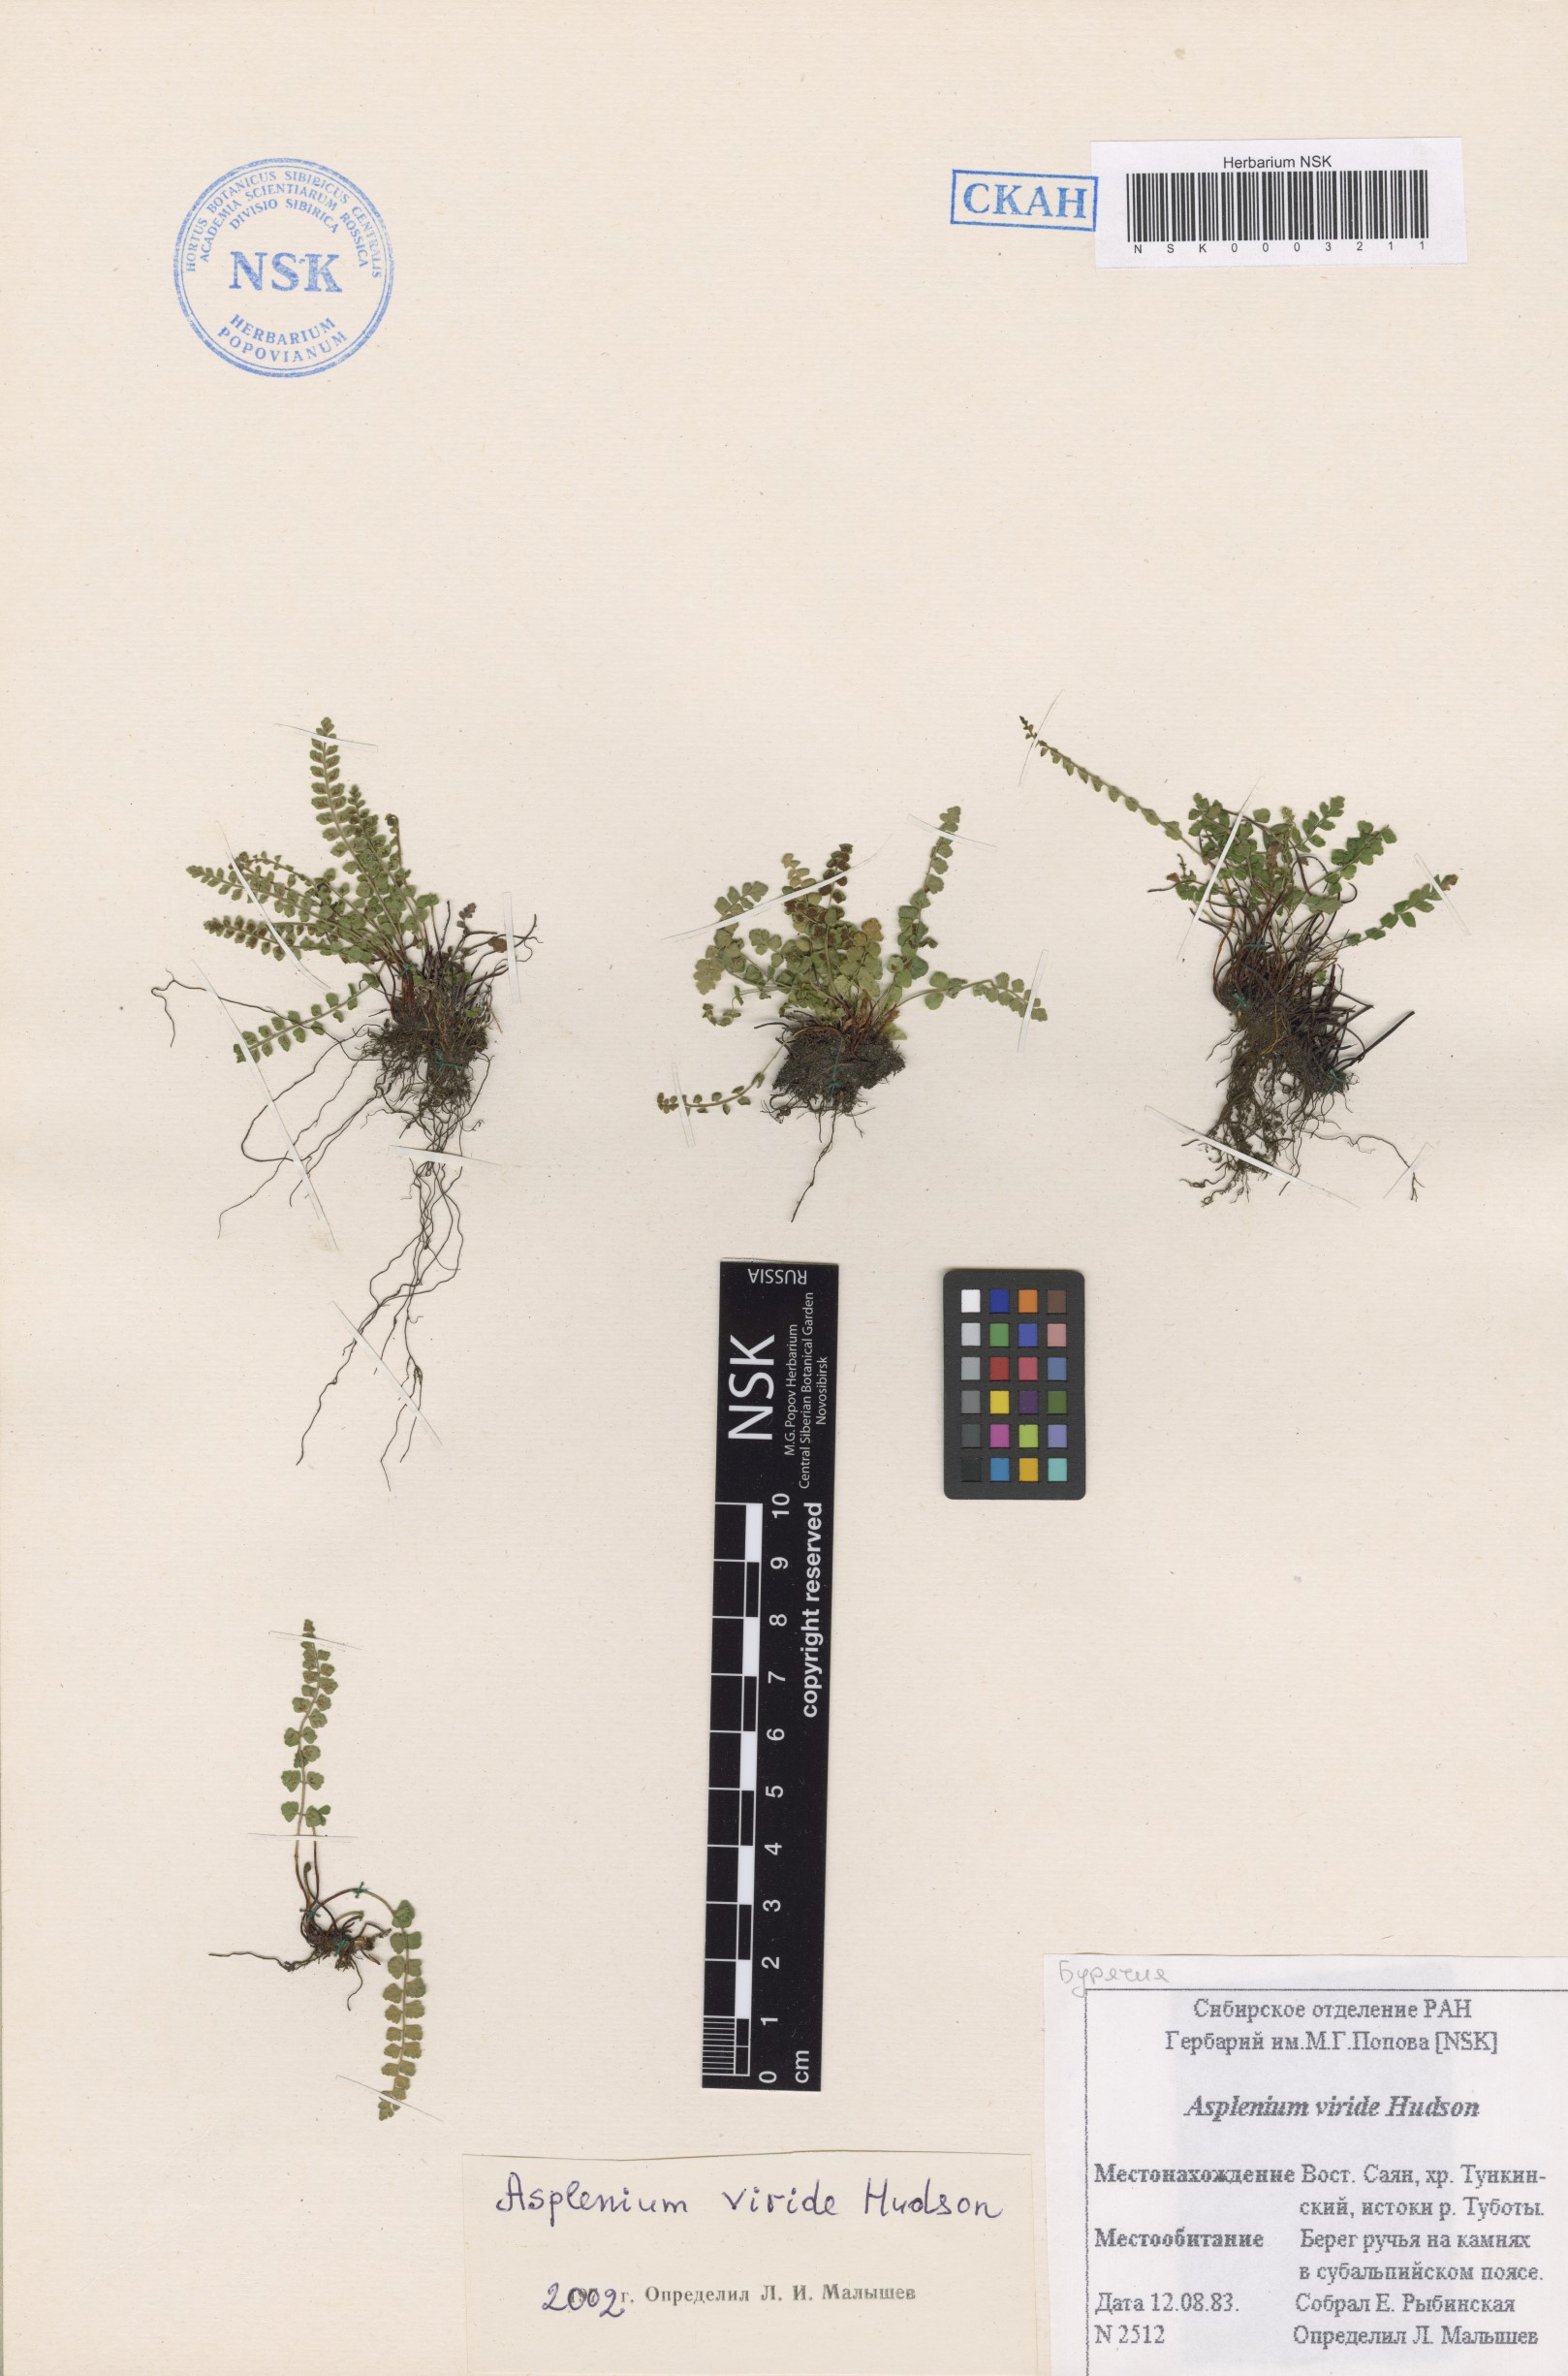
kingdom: Plantae
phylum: Tracheophyta
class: Polypodiopsida
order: Polypodiales
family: Aspleniaceae
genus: Asplenium
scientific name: Asplenium viride
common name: Green spleenwort
